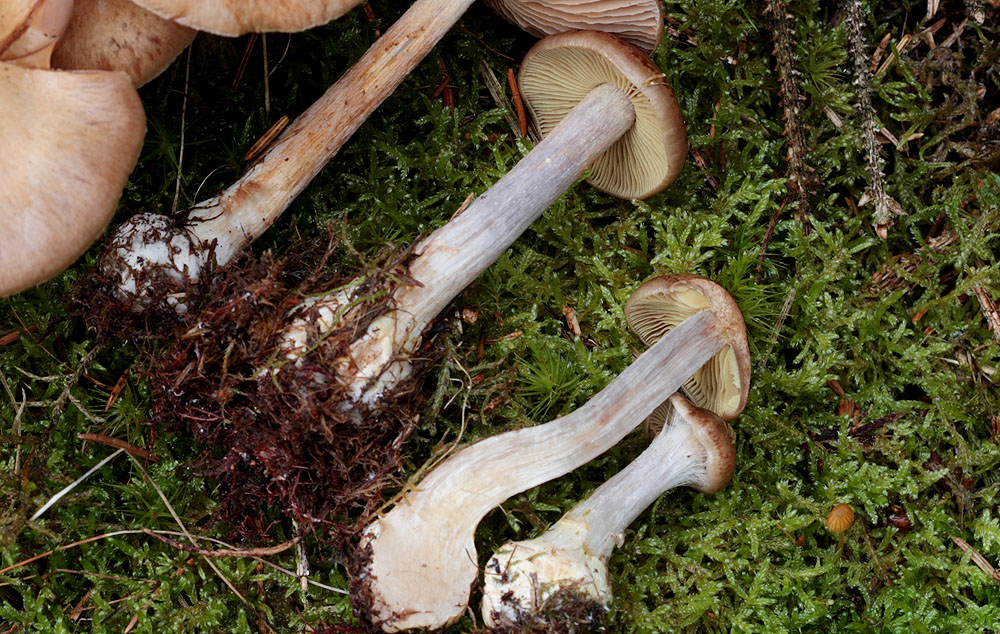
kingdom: Fungi
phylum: Basidiomycota
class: Agaricomycetes
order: Agaricales
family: Cortinariaceae
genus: Thaxterogaster
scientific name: Thaxterogaster scaurus
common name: sump-slørhat
